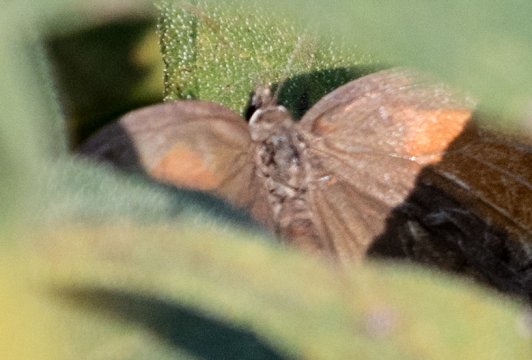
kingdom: Animalia
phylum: Arthropoda
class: Insecta
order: Lepidoptera
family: Lycaenidae
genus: Fixsenia
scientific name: Fixsenia favonius
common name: Oak Hairstreak
